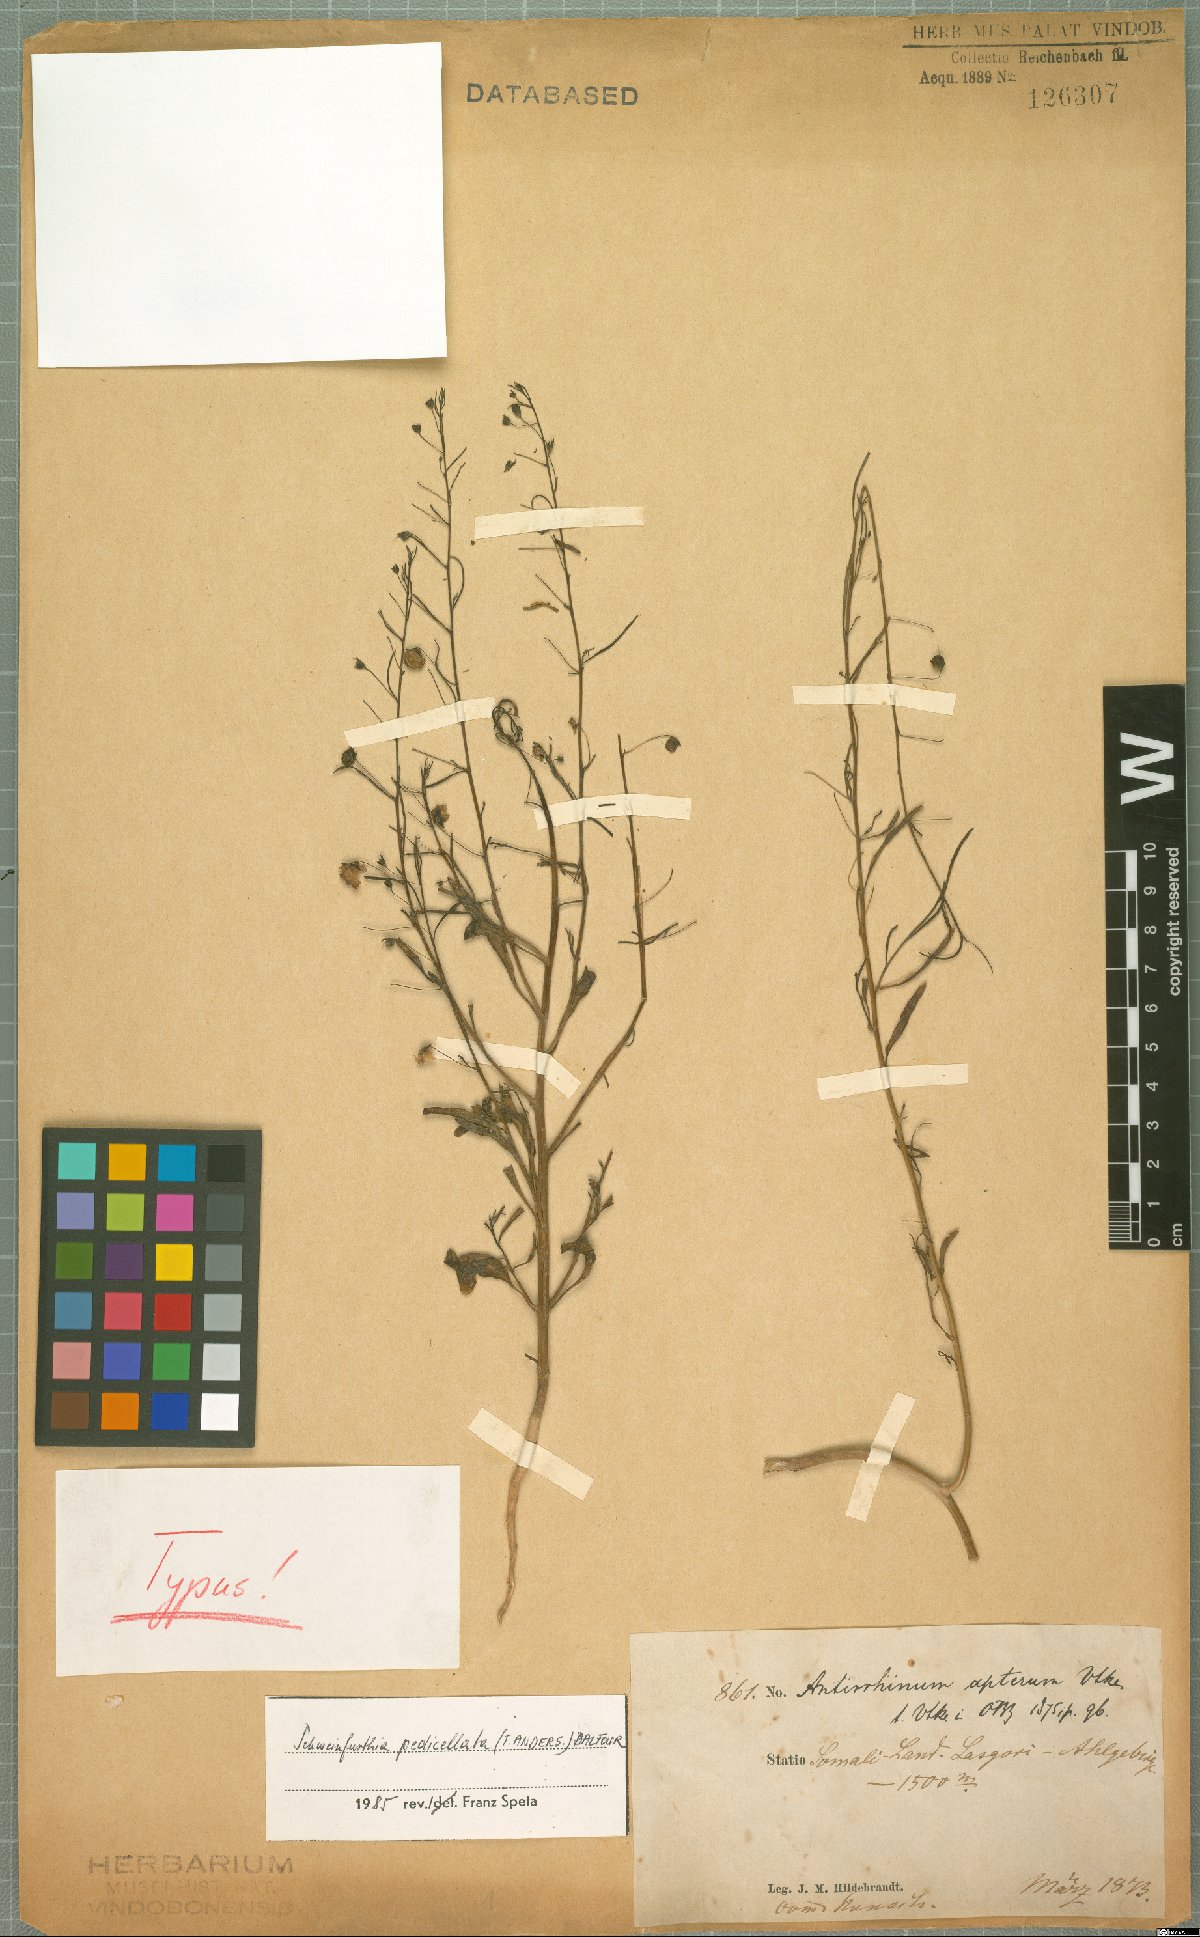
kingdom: Plantae
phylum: Tracheophyta
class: Magnoliopsida
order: Lamiales
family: Plantaginaceae
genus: Schweinfurthia
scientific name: Schweinfurthia pedicellata
